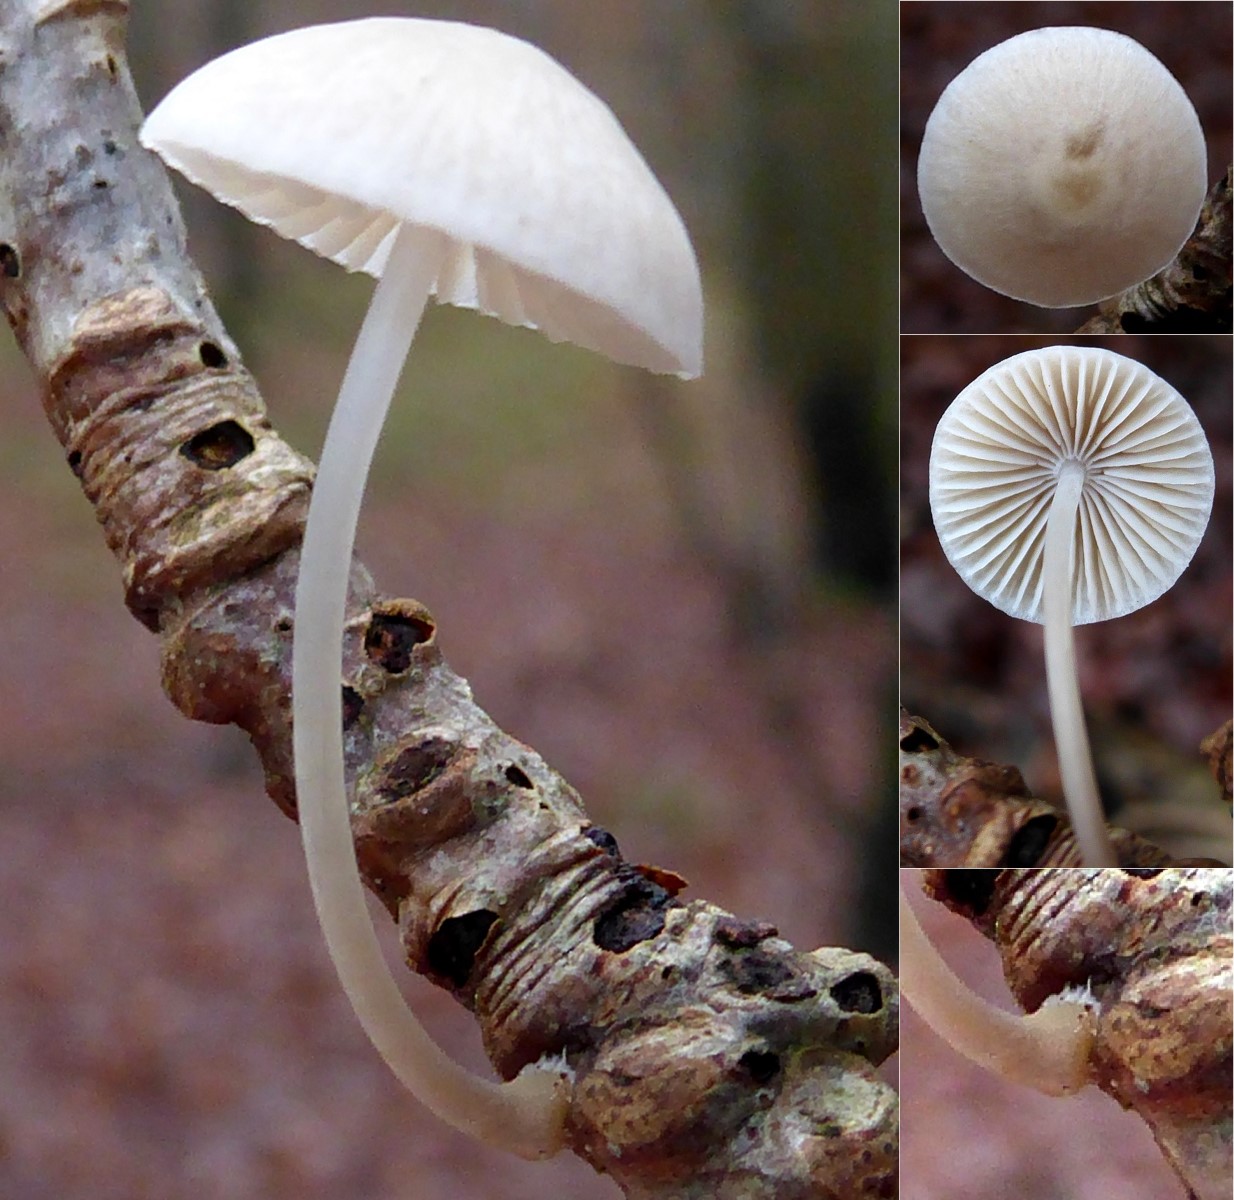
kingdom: Fungi
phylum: Basidiomycota
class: Agaricomycetes
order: Agaricales
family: Mycenaceae
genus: Mycena
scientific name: Mycena arcangeliana
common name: oliven-huesvamp
